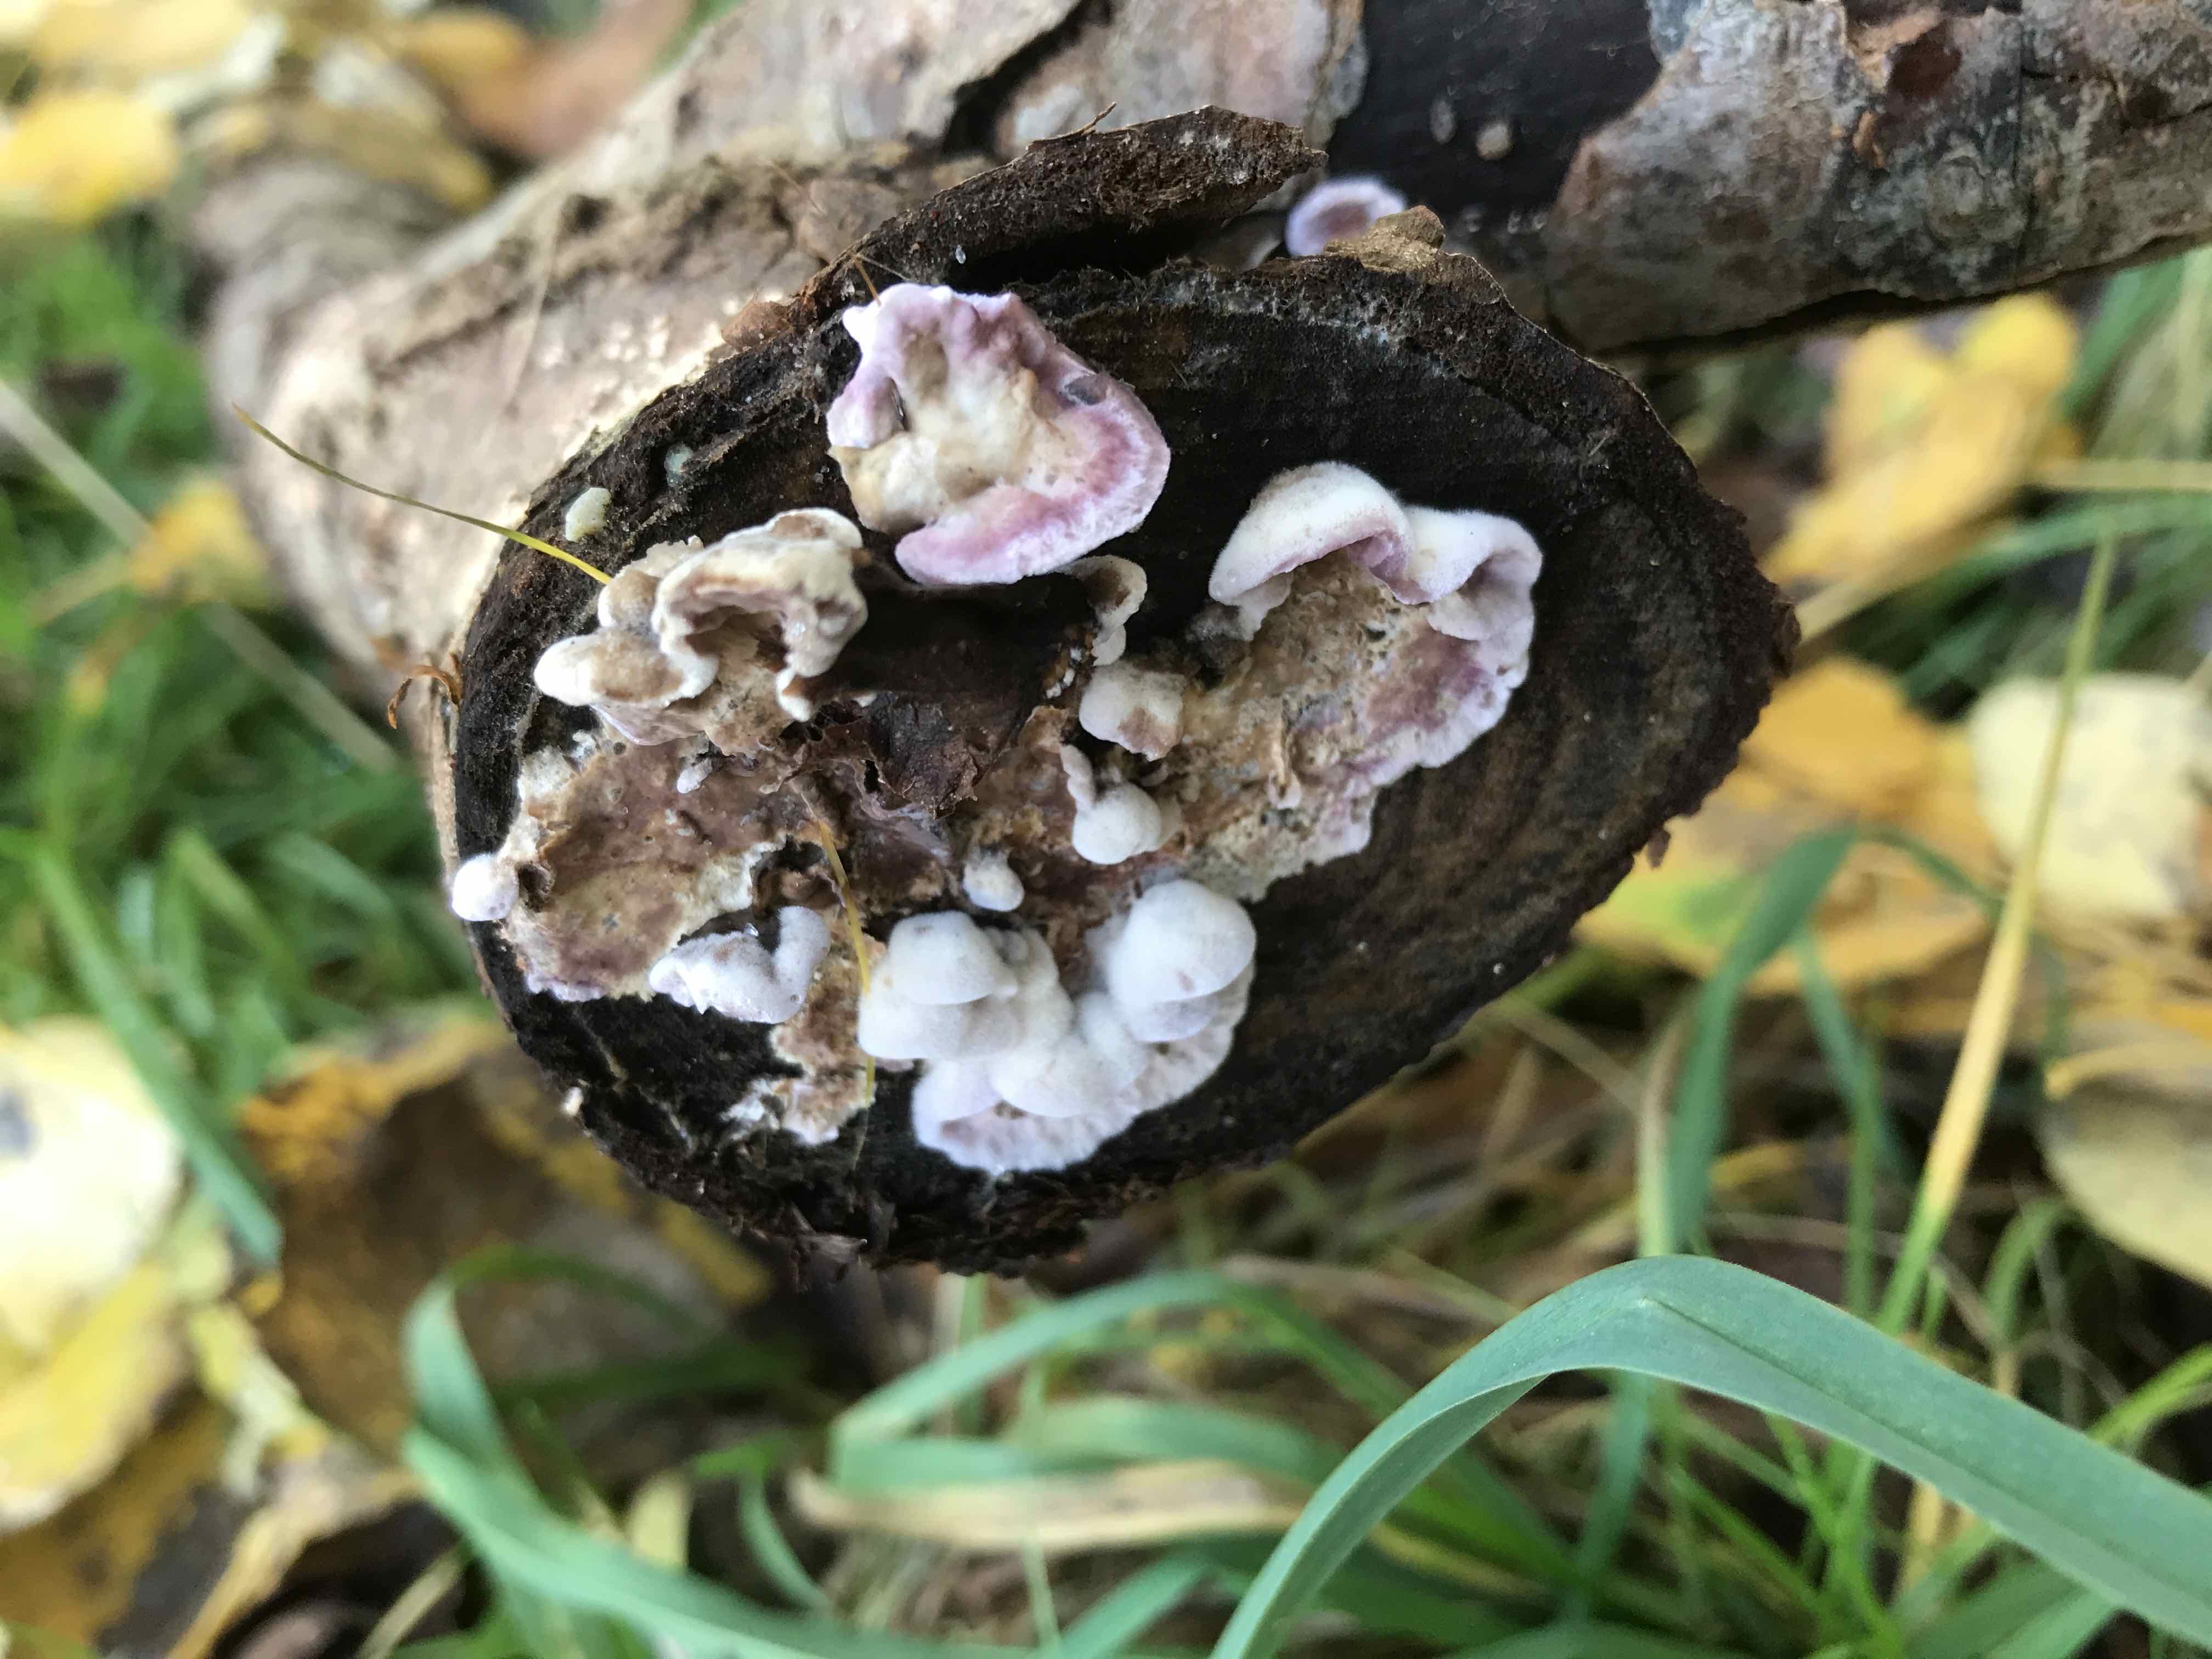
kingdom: Fungi
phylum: Basidiomycota
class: Agaricomycetes
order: Agaricales
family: Cyphellaceae
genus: Chondrostereum
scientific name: Chondrostereum purpureum
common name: purpurlædersvamp
